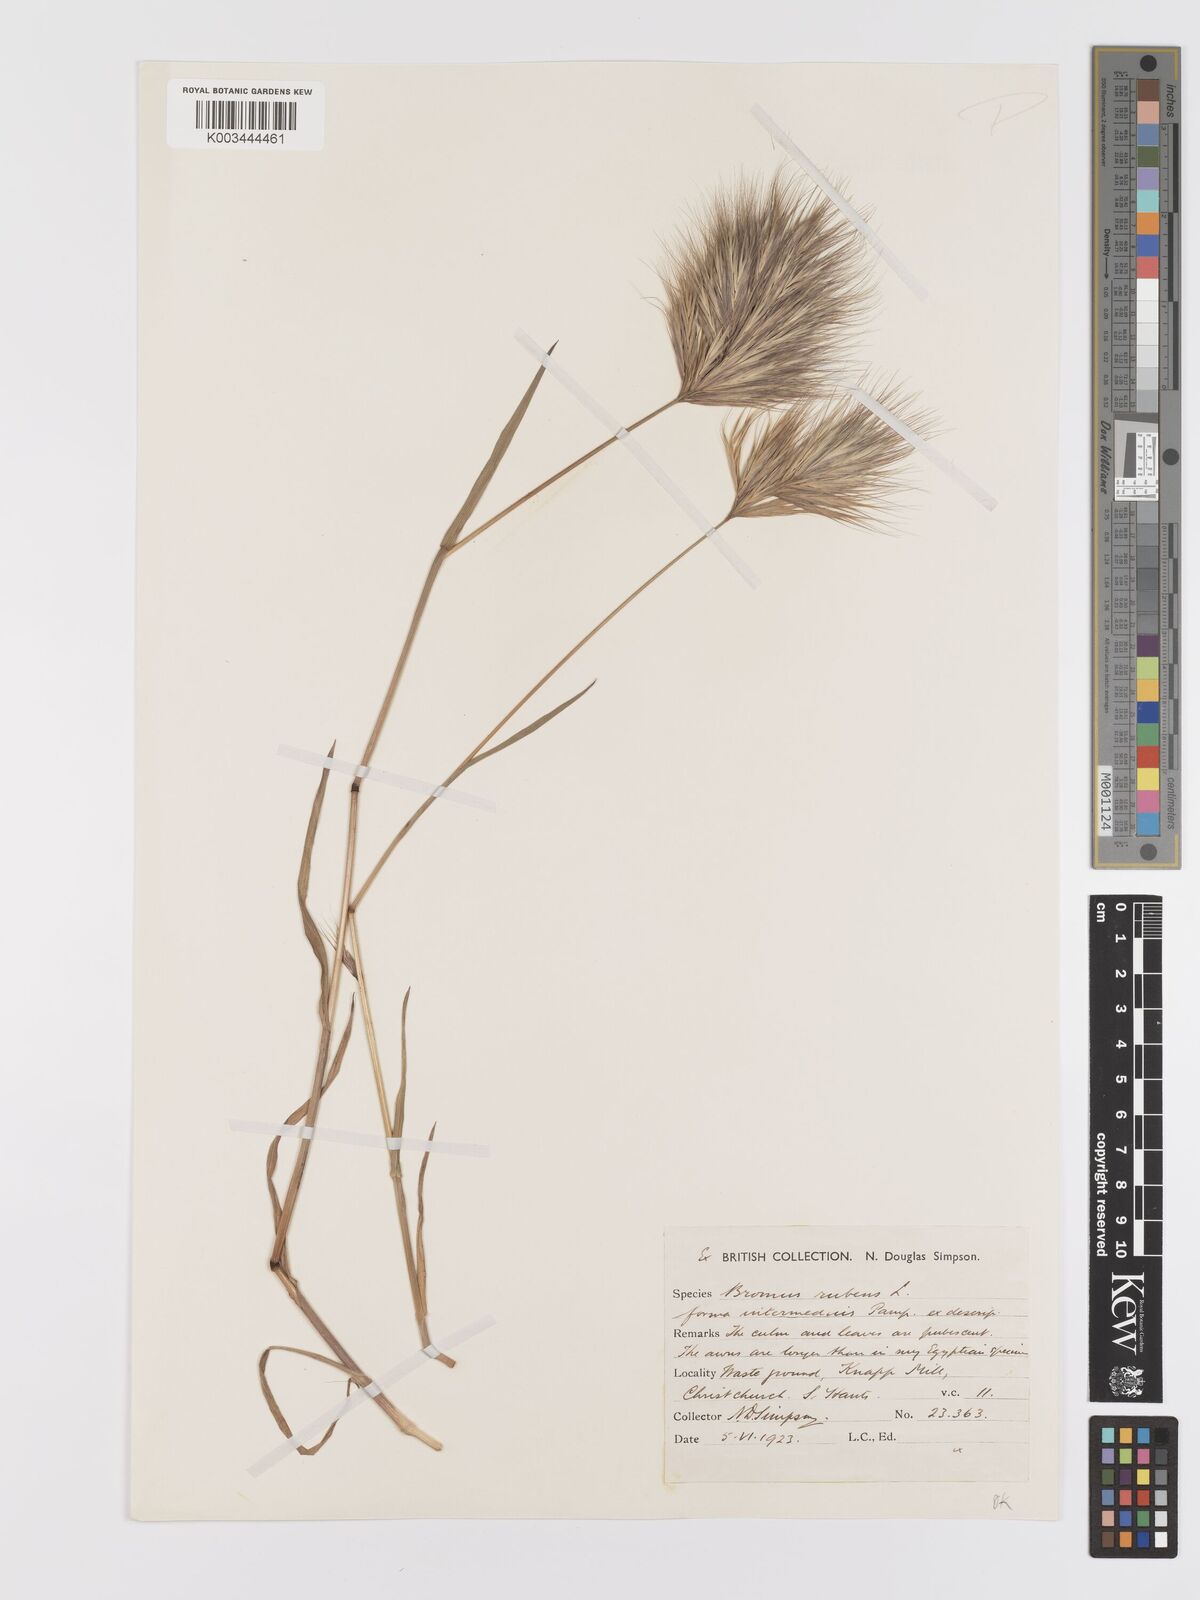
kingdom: Plantae
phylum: Tracheophyta
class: Liliopsida
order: Poales
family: Poaceae
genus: Bromus
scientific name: Bromus rubens
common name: Red brome
